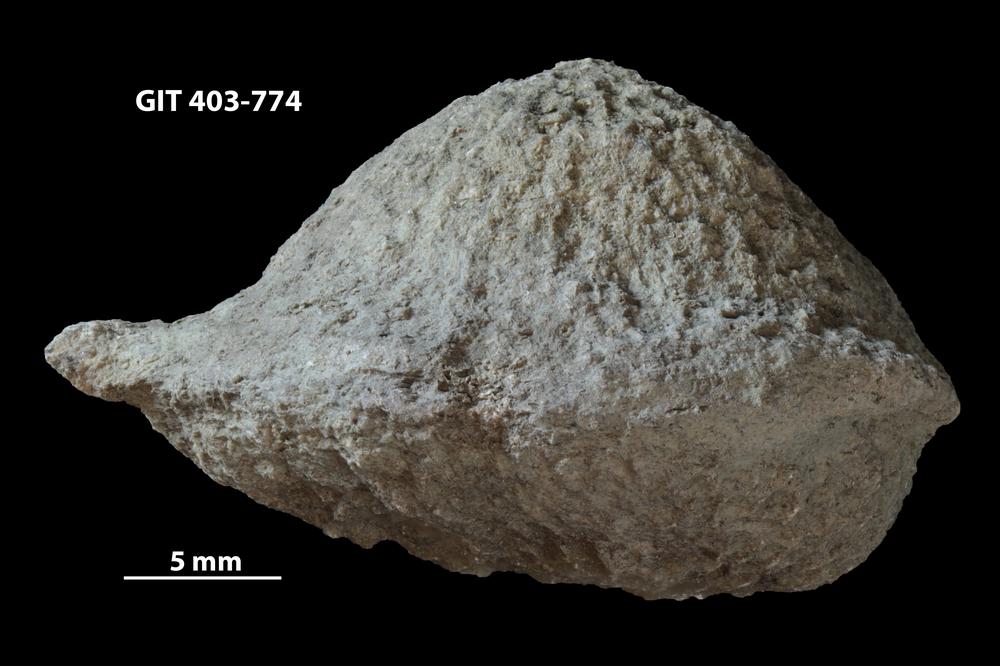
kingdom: Animalia
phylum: Cnidaria
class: Anthozoa
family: Favositidae
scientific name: Favositidae
